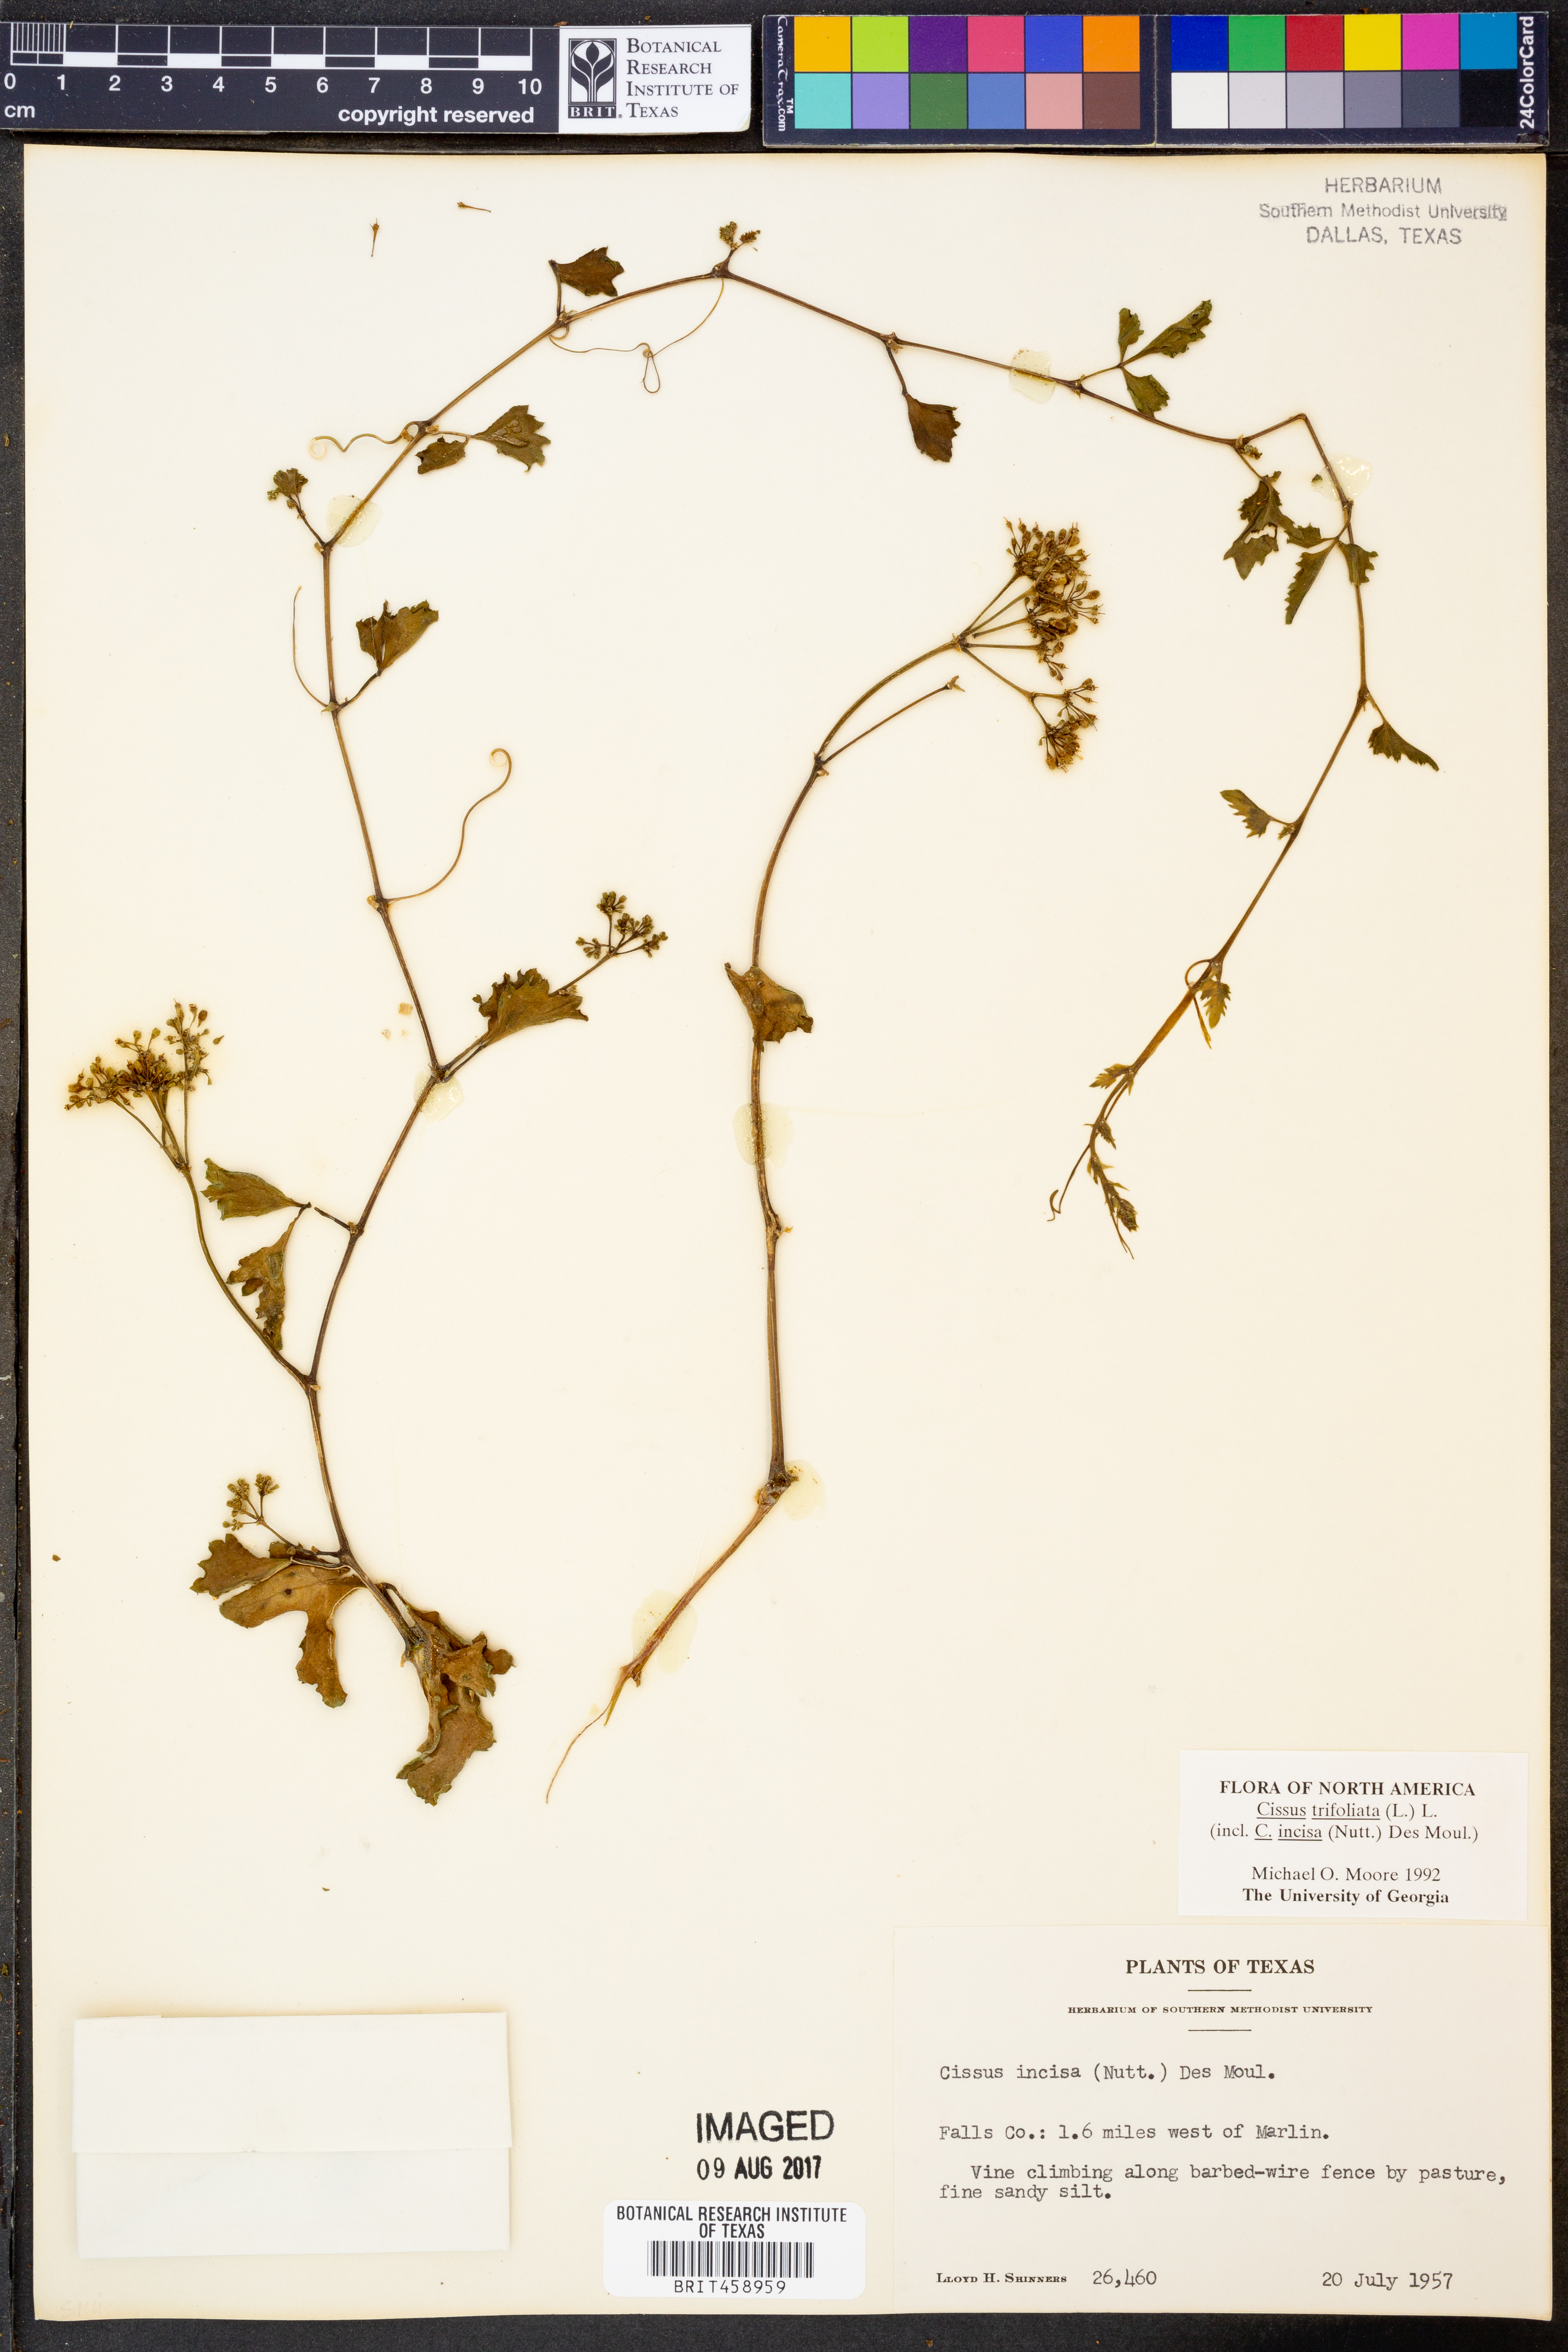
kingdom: Plantae
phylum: Tracheophyta
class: Magnoliopsida
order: Vitales
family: Vitaceae
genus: Cissus
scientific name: Cissus trifoliata
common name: Vine-sorrel
